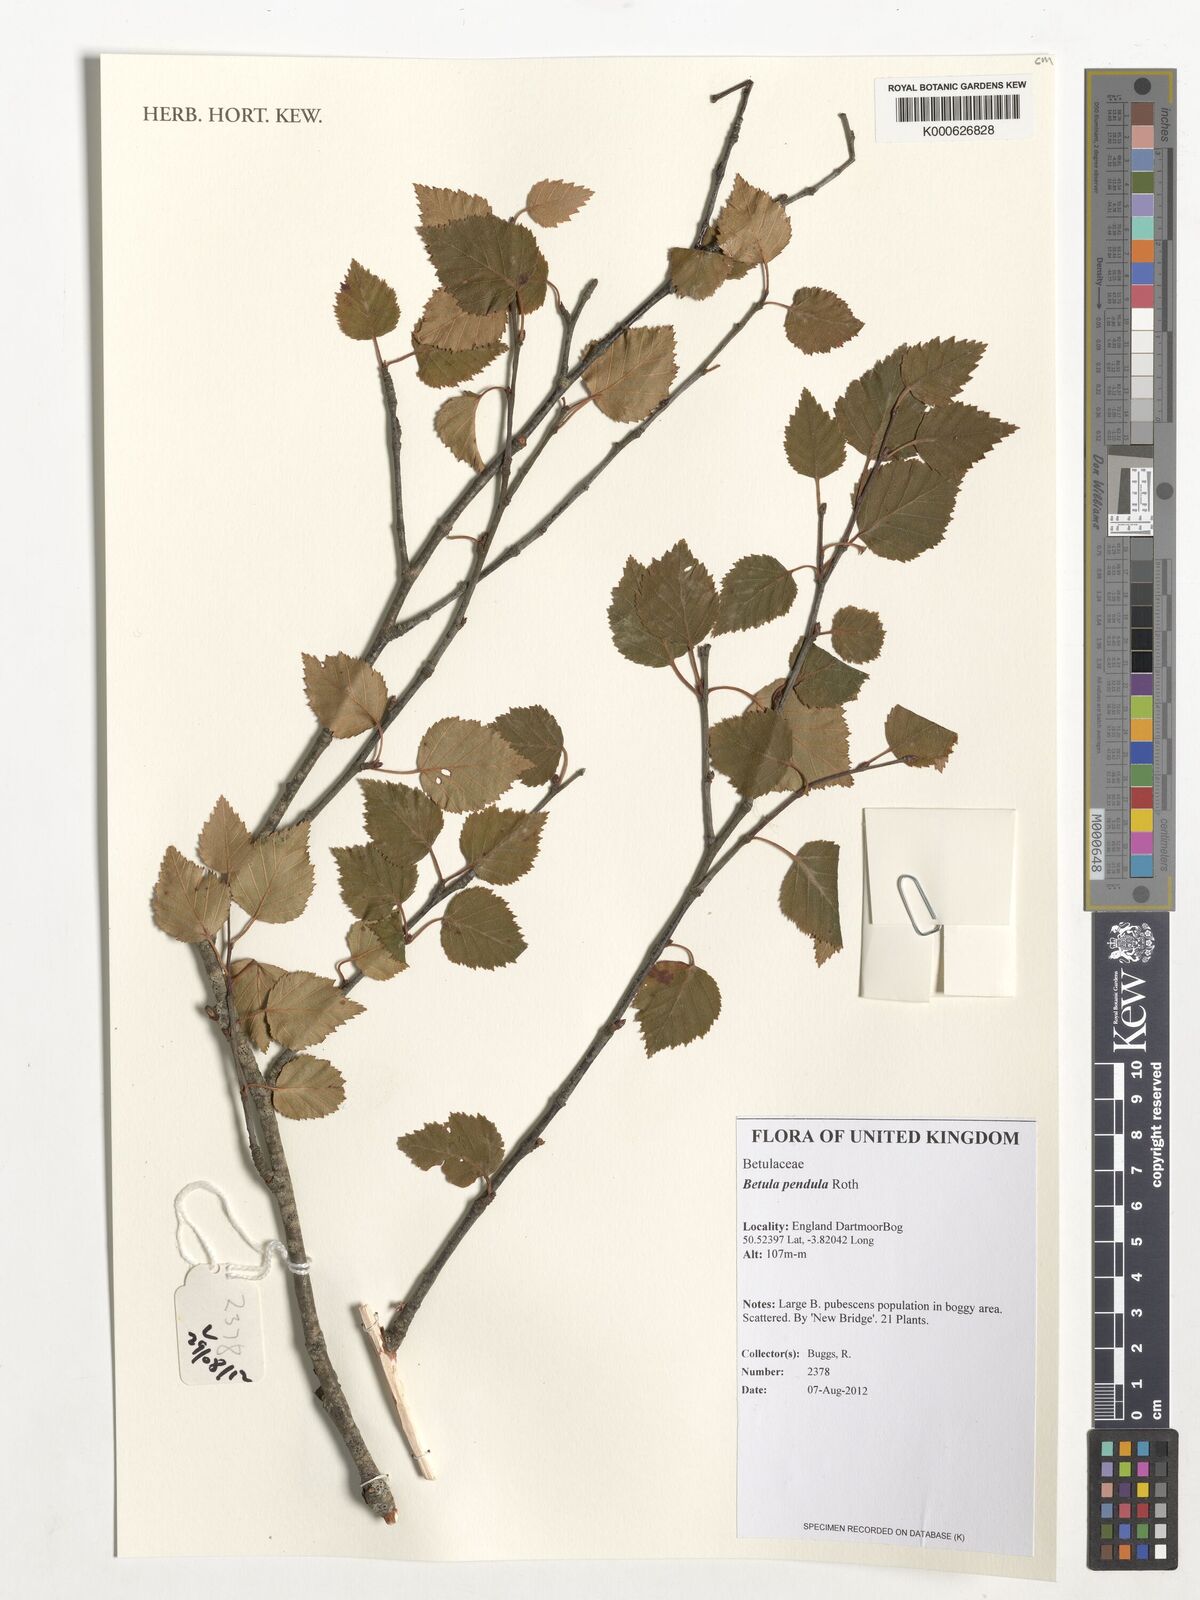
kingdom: Plantae
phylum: Tracheophyta
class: Magnoliopsida
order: Fagales
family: Betulaceae
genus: Betula
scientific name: Betula pendula
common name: Silver birch
